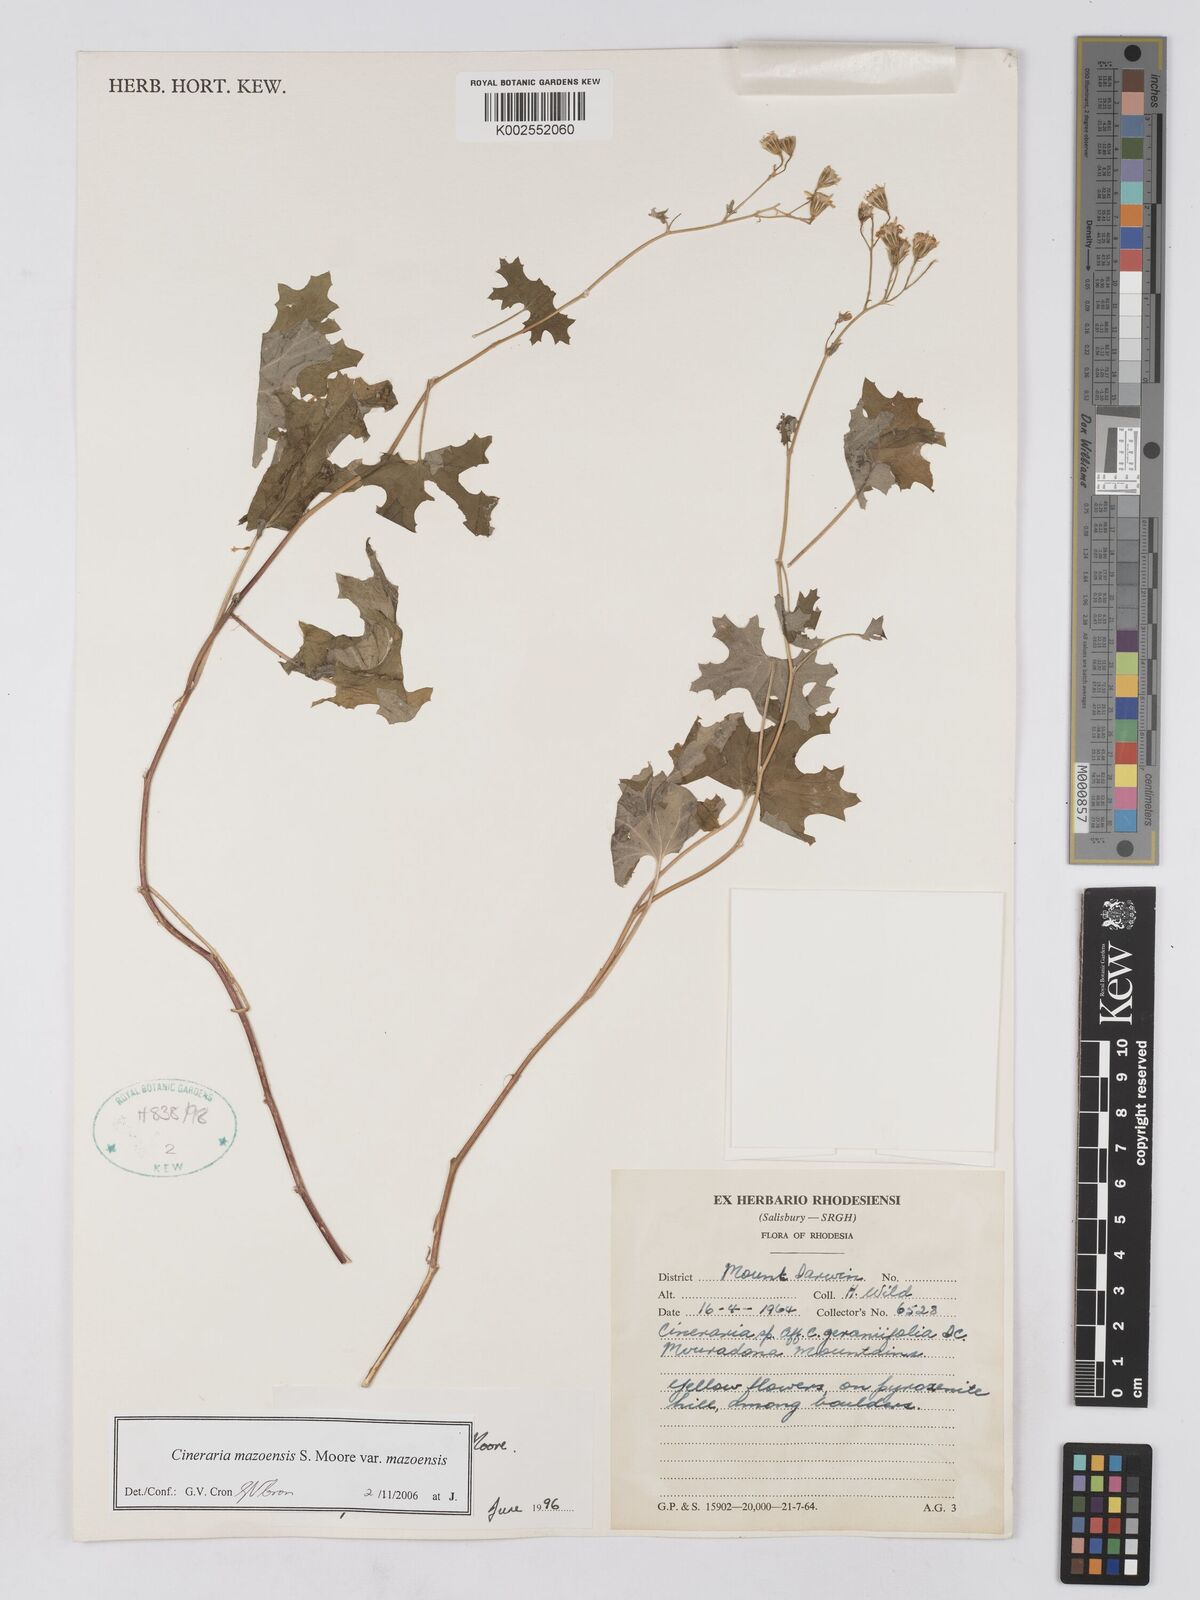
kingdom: Plantae
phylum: Tracheophyta
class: Magnoliopsida
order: Asterales
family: Asteraceae
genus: Cineraria
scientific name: Cineraria mazoensis
